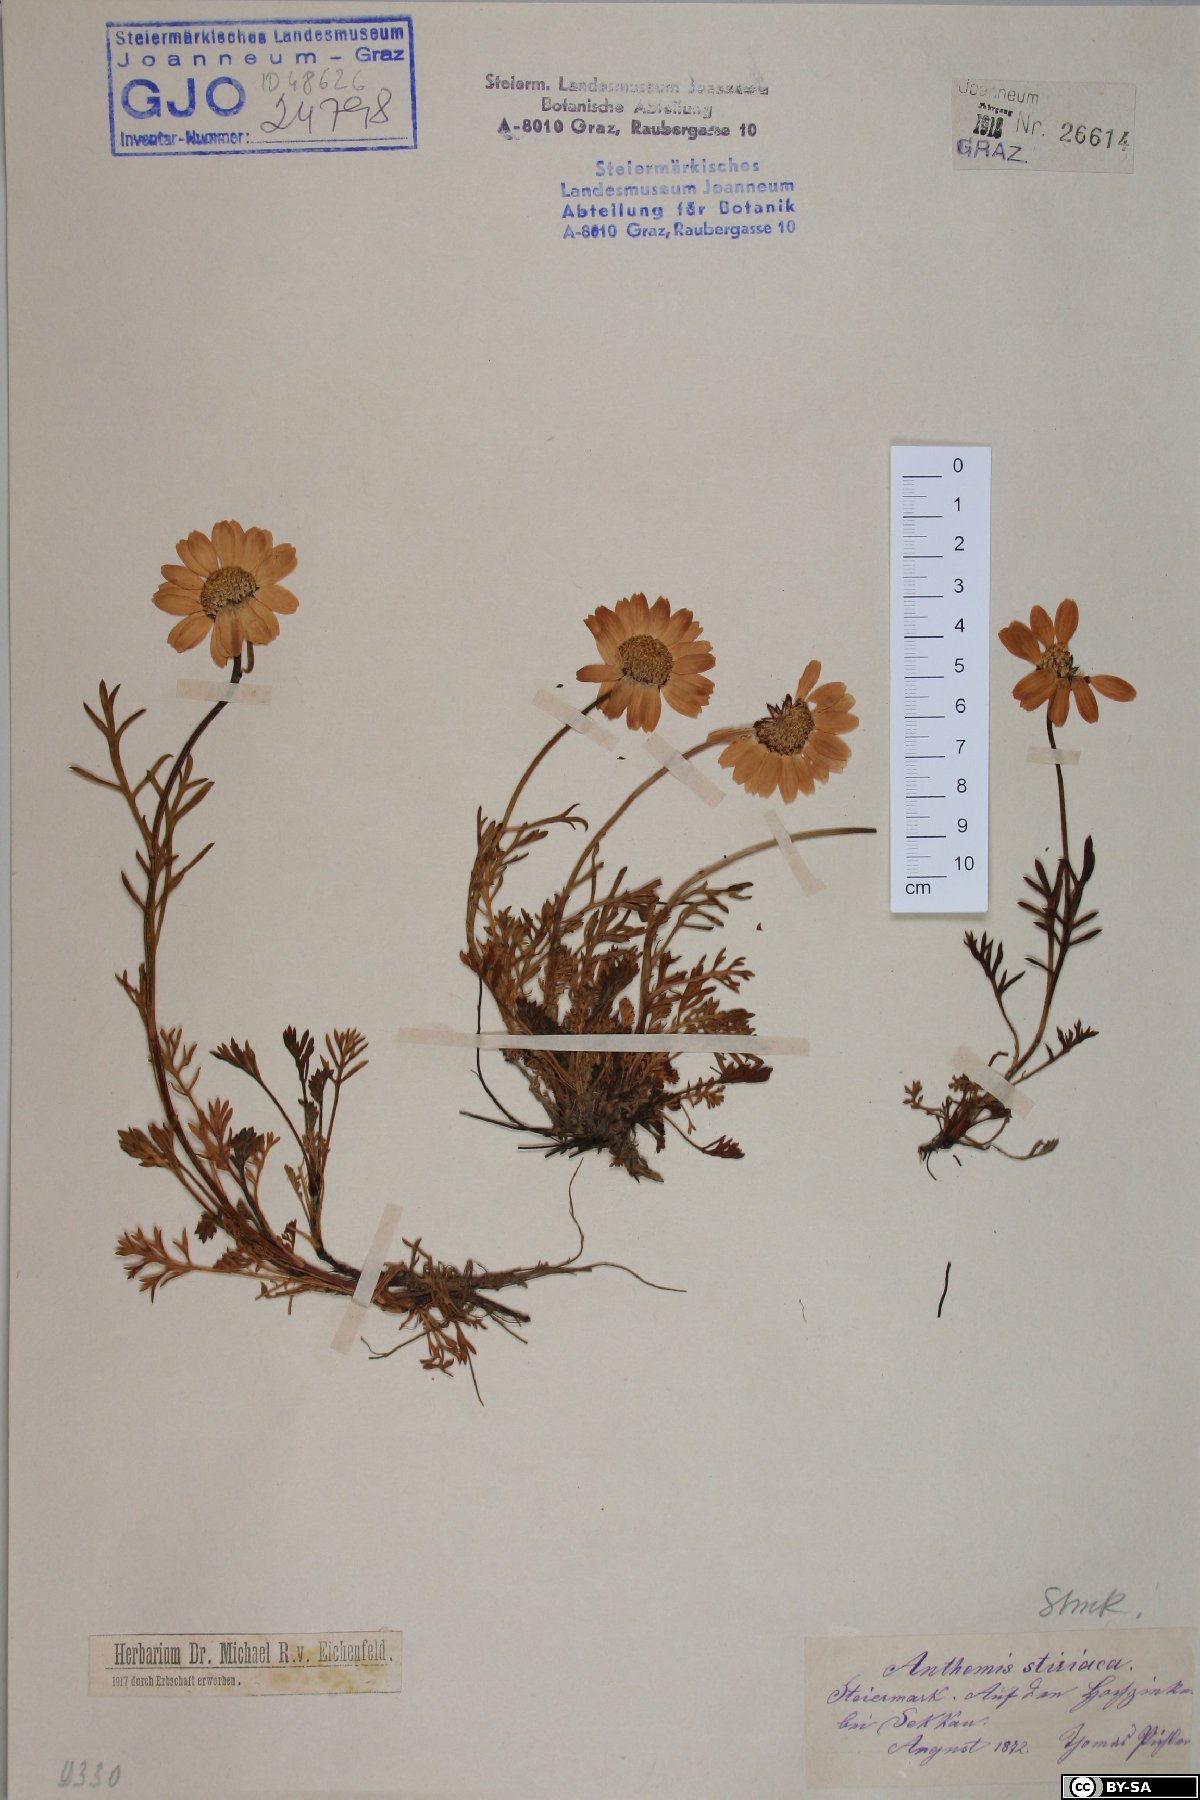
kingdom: Plantae
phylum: Tracheophyta
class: Magnoliopsida
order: Asterales
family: Asteraceae
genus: Anthemis
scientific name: Anthemis cretica
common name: Mountain dog-daisy
